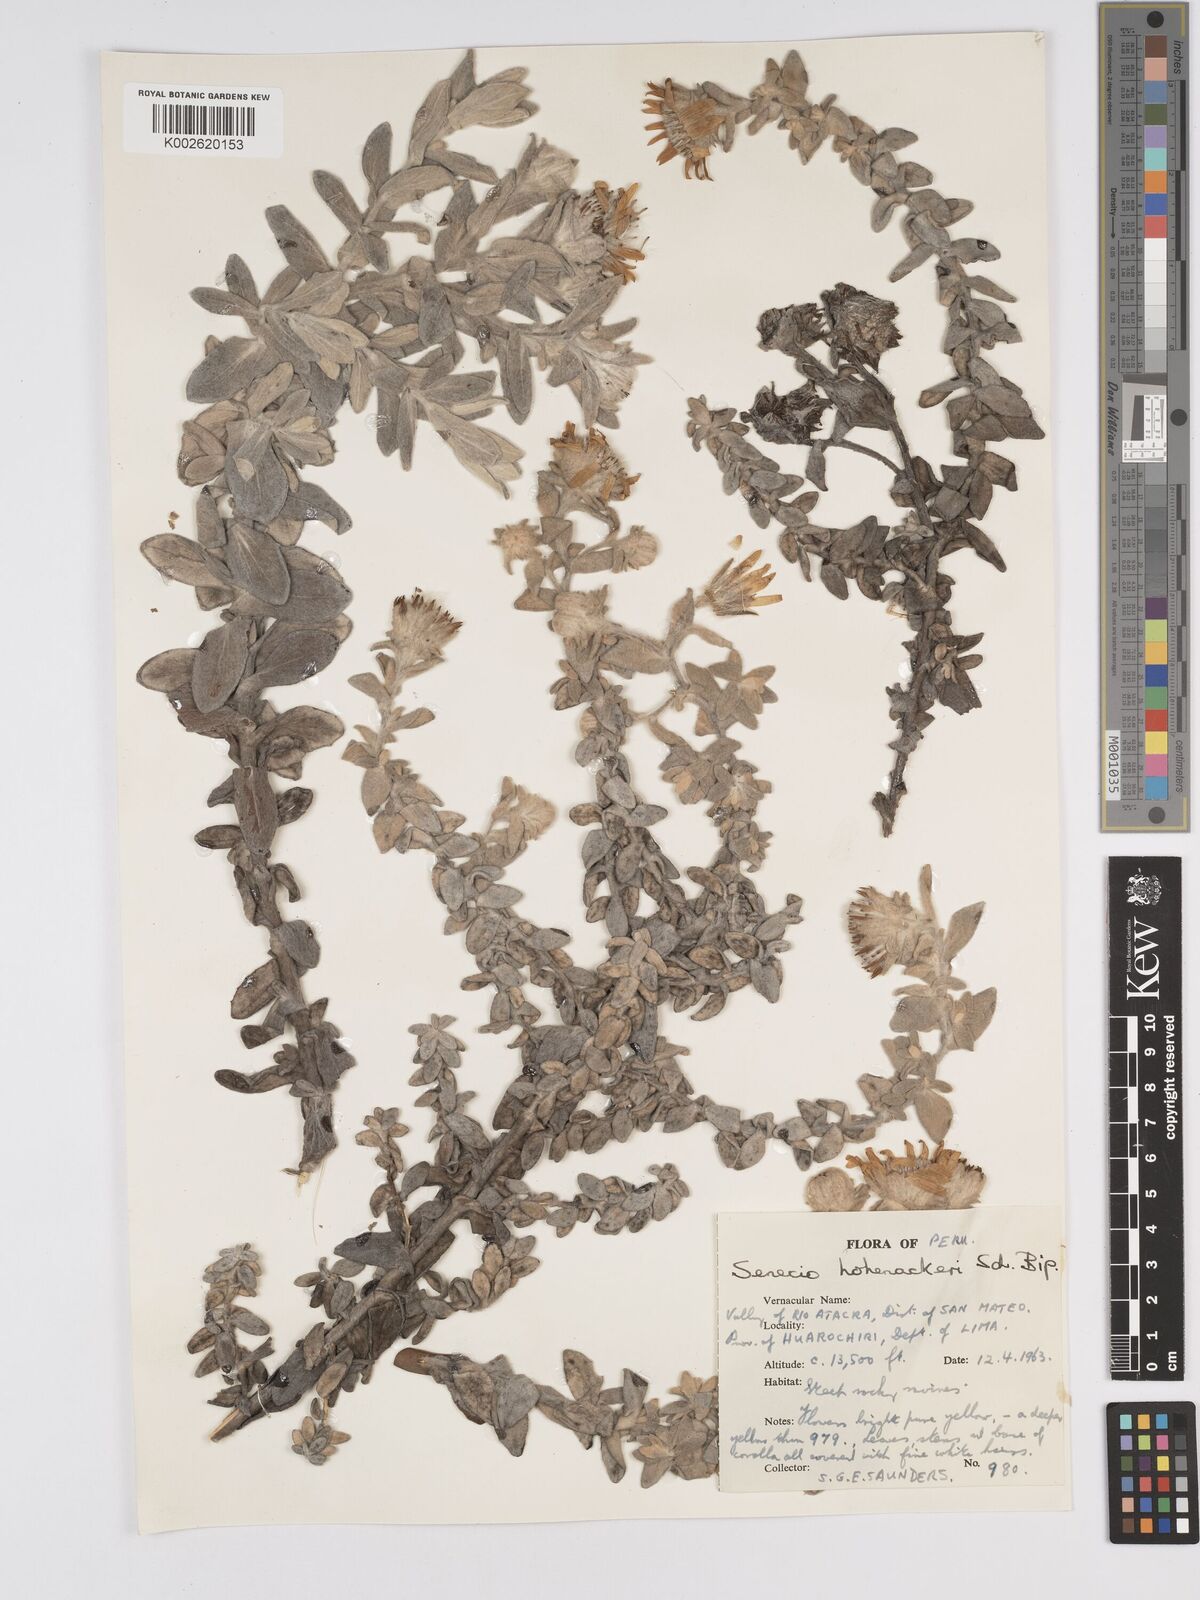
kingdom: Plantae
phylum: Tracheophyta
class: Magnoliopsida
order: Asterales
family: Asteraceae
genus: Senecio
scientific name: Senecio hohenackeri
